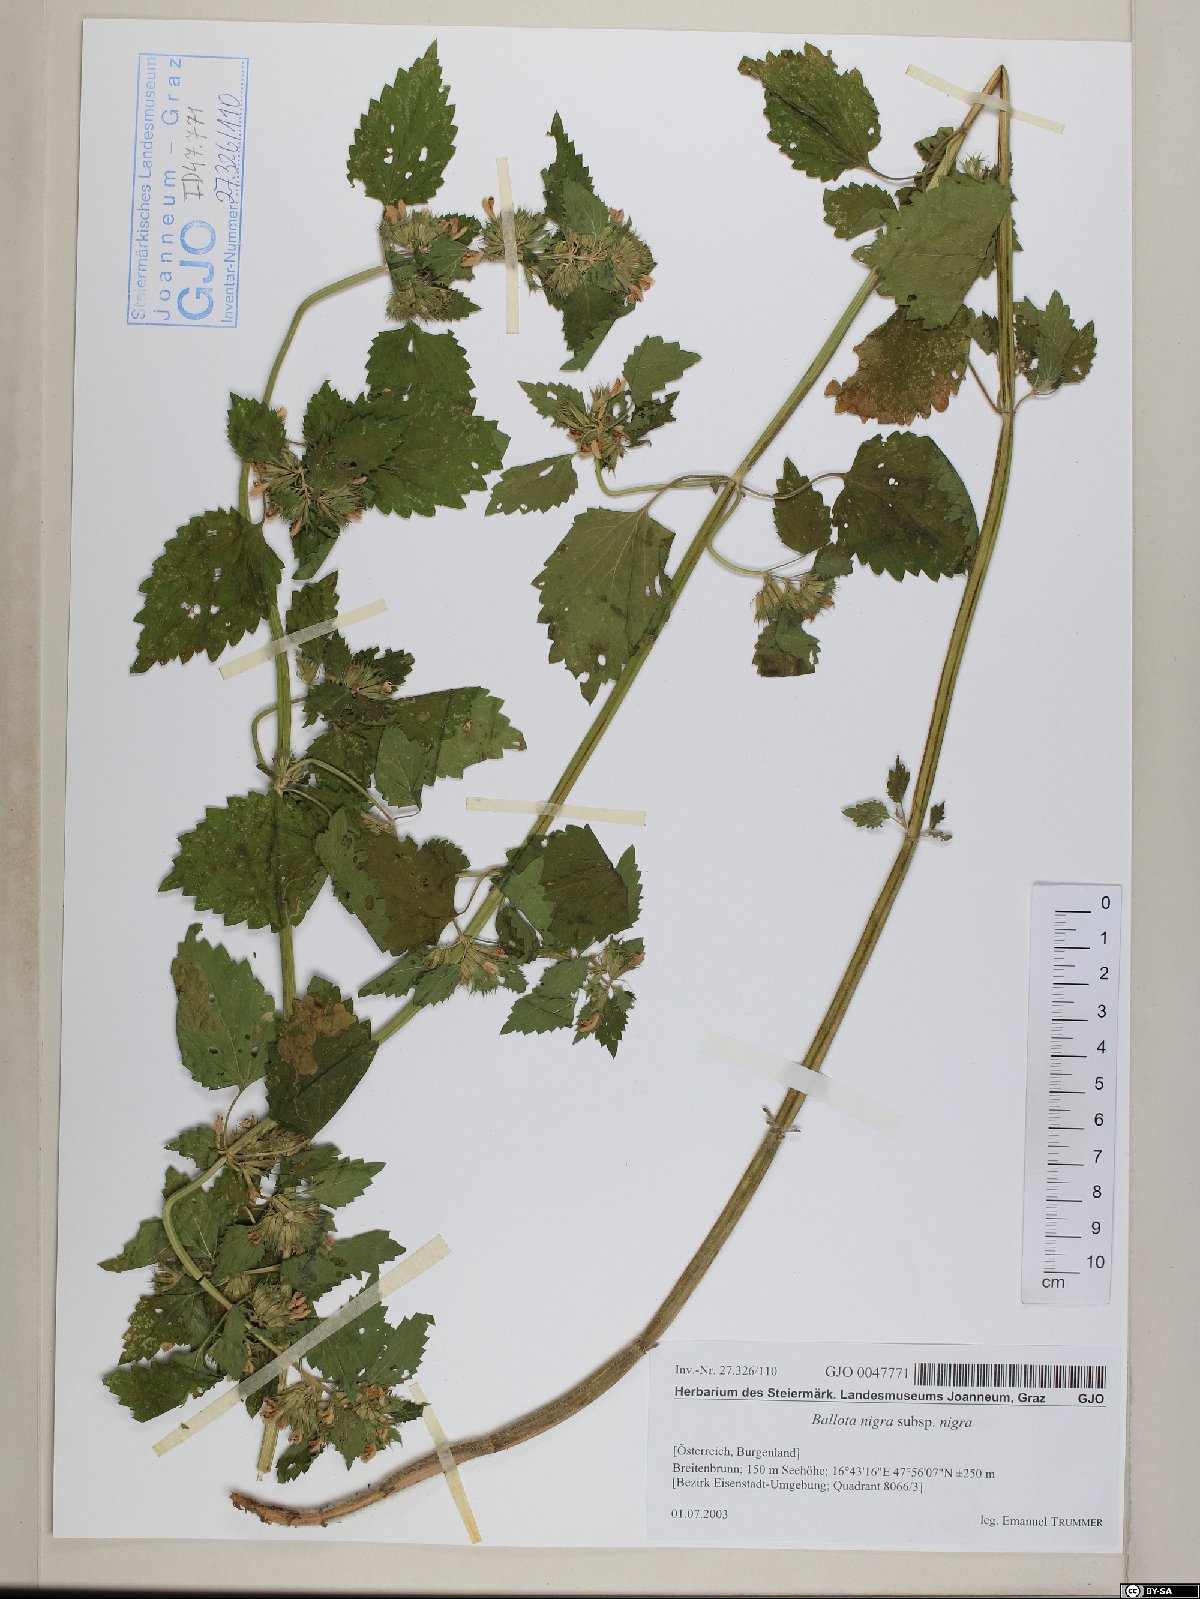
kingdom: Plantae
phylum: Tracheophyta
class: Magnoliopsida
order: Lamiales
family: Lamiaceae
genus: Ballota
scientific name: Ballota nigra
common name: Black horehound
